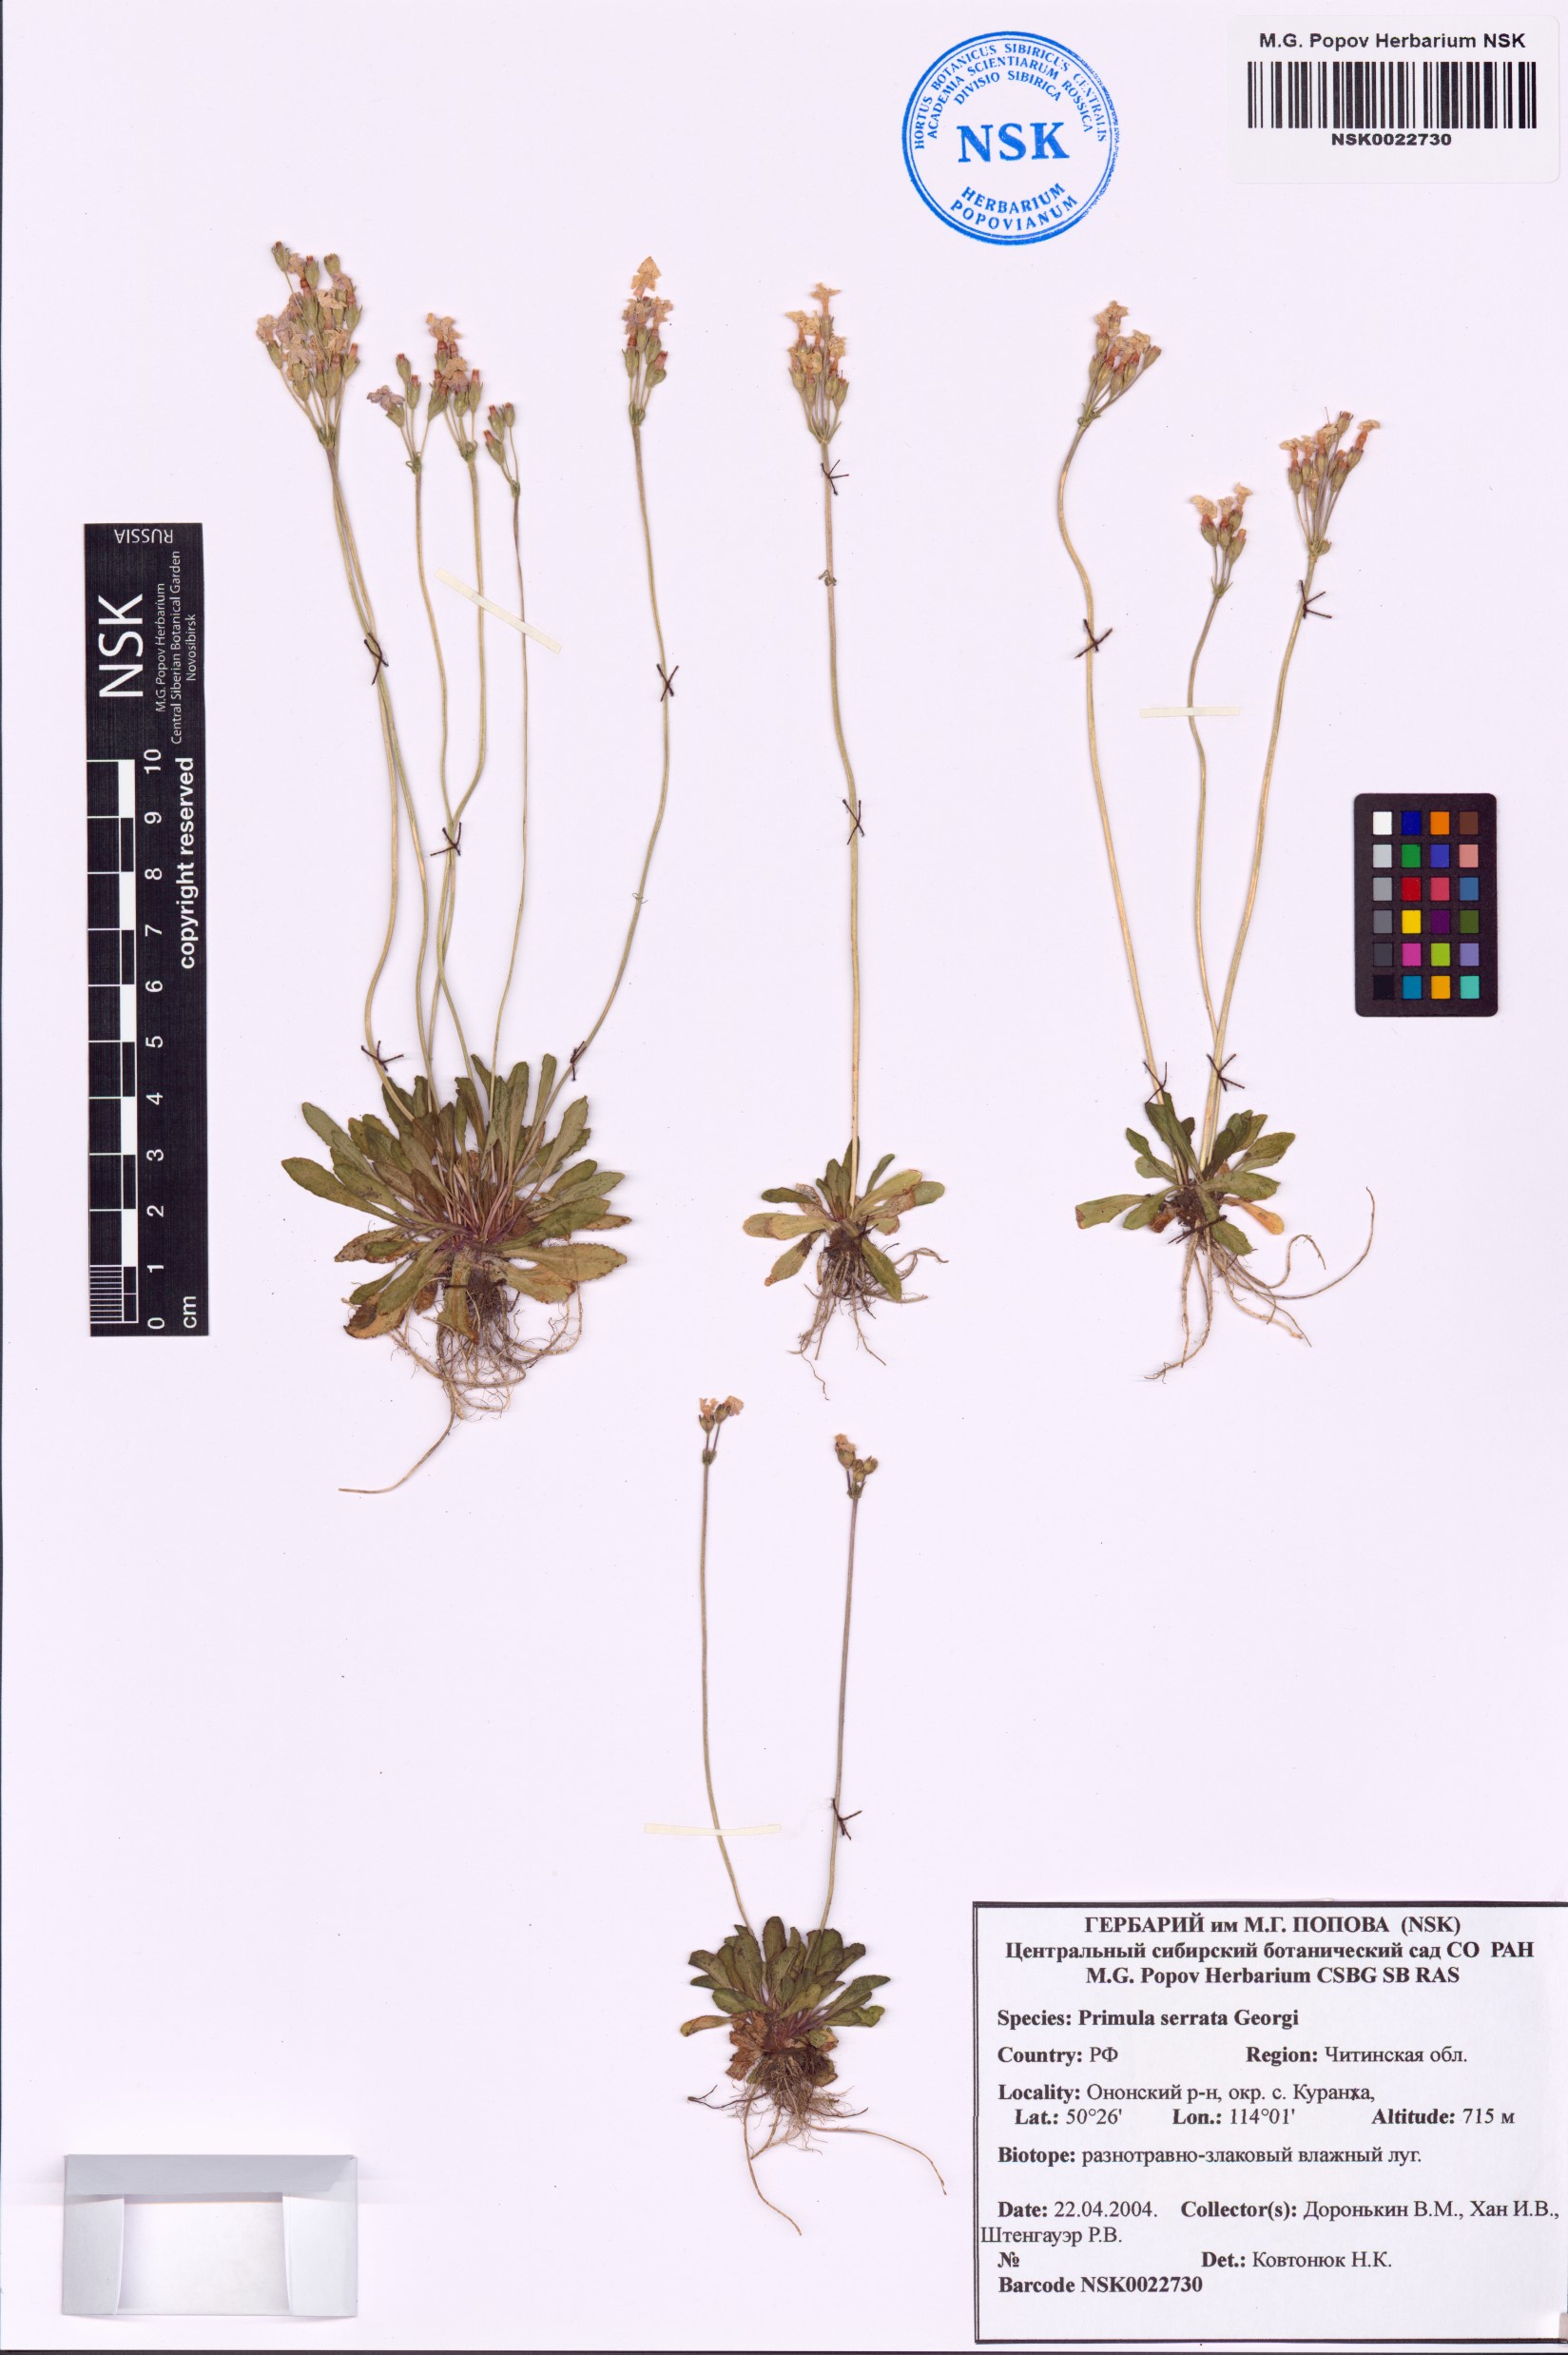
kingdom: Plantae
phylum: Tracheophyta
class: Magnoliopsida
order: Ericales
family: Primulaceae
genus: Primula
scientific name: Primula serrata
